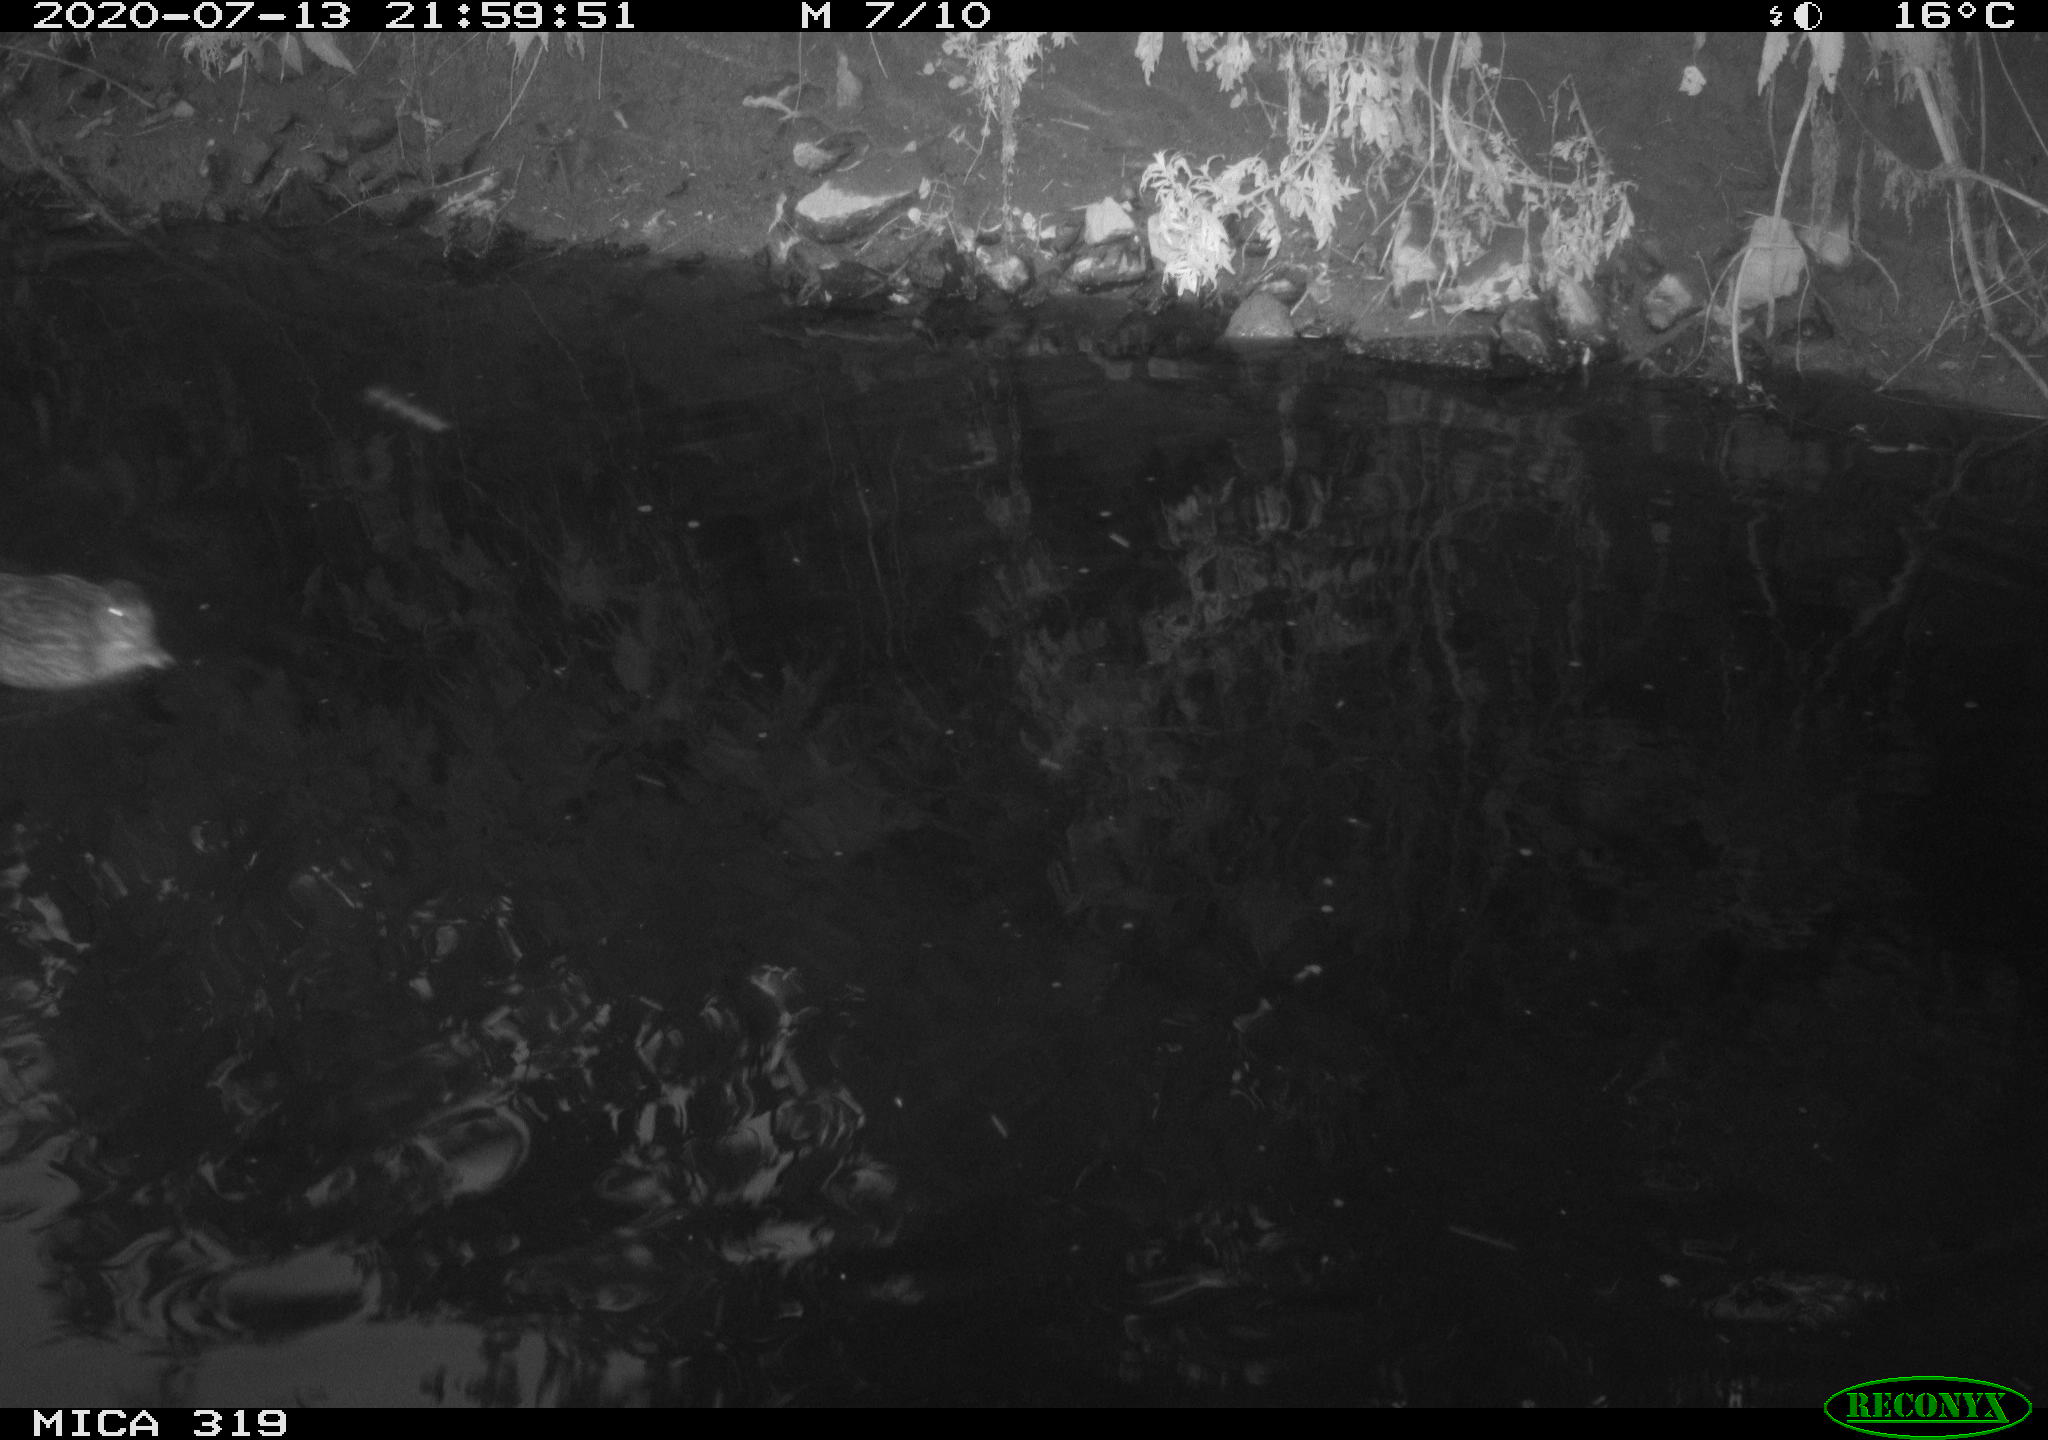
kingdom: Animalia
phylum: Chordata
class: Aves
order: Anseriformes
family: Anatidae
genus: Anas
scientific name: Anas platyrhynchos
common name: Mallard
